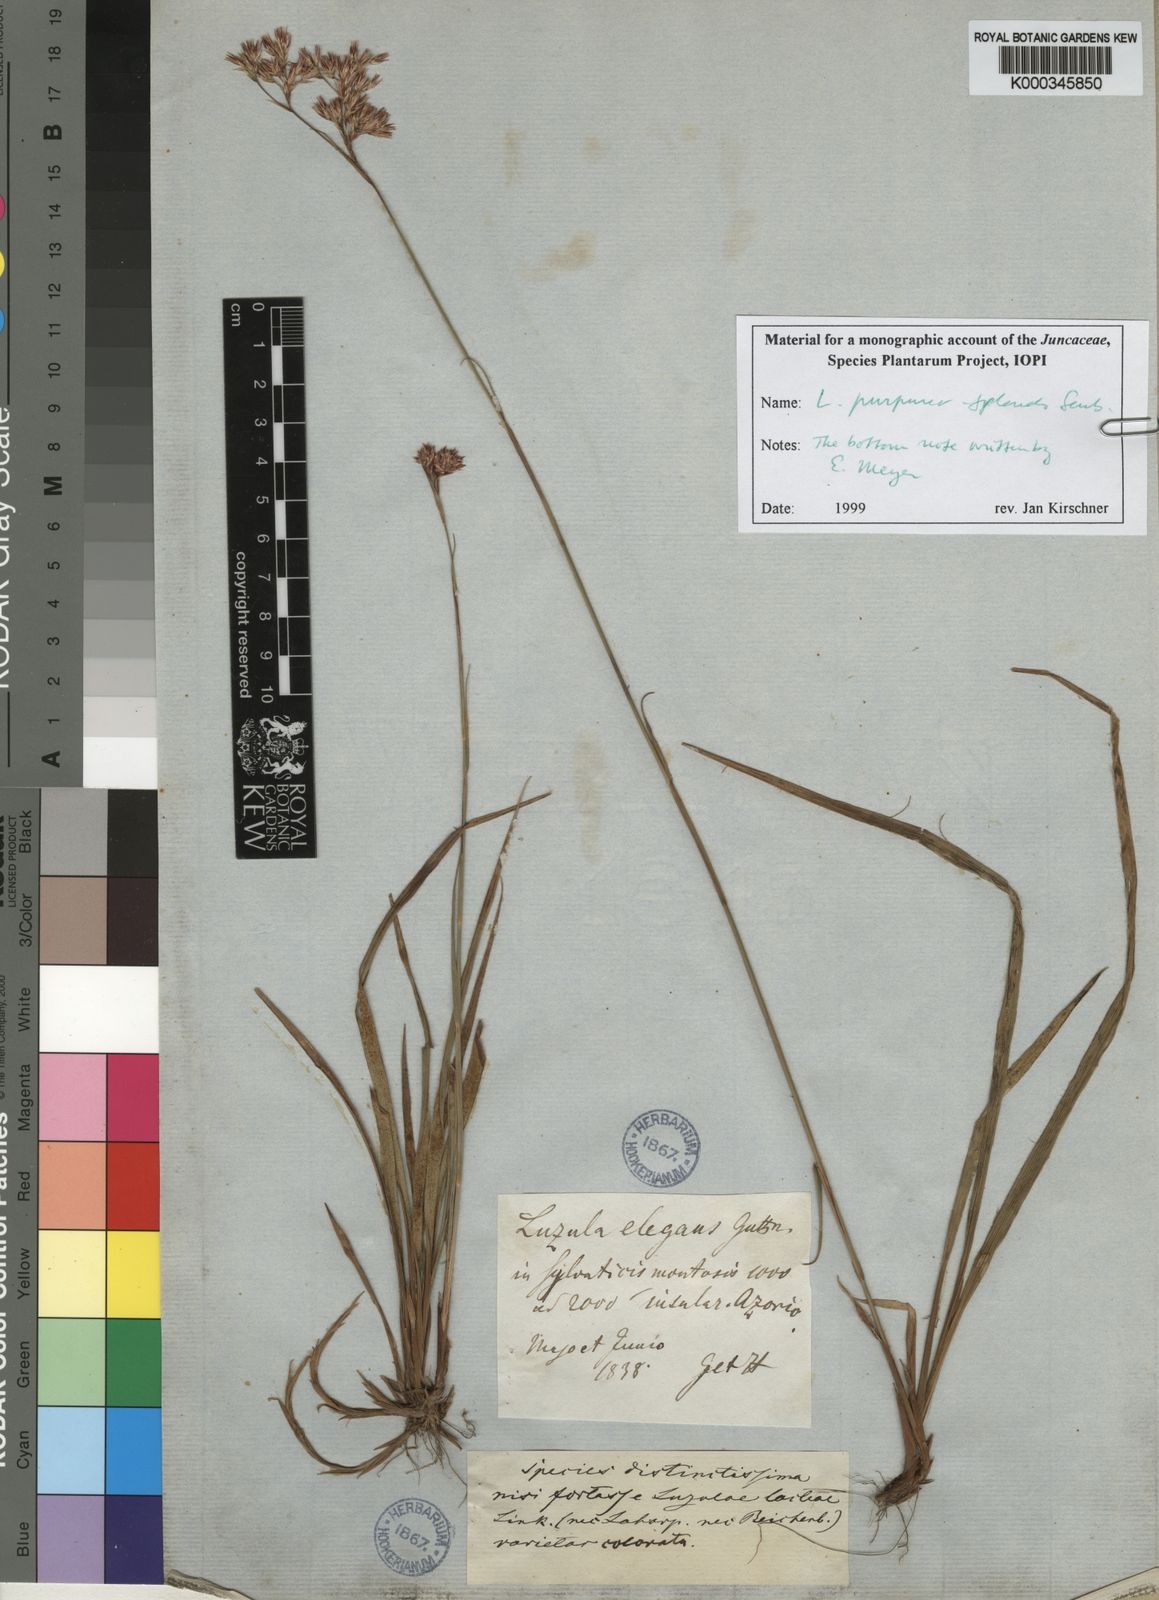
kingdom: Plantae
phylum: Tracheophyta
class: Liliopsida
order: Poales
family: Juncaceae
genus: Luzula
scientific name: Luzula
